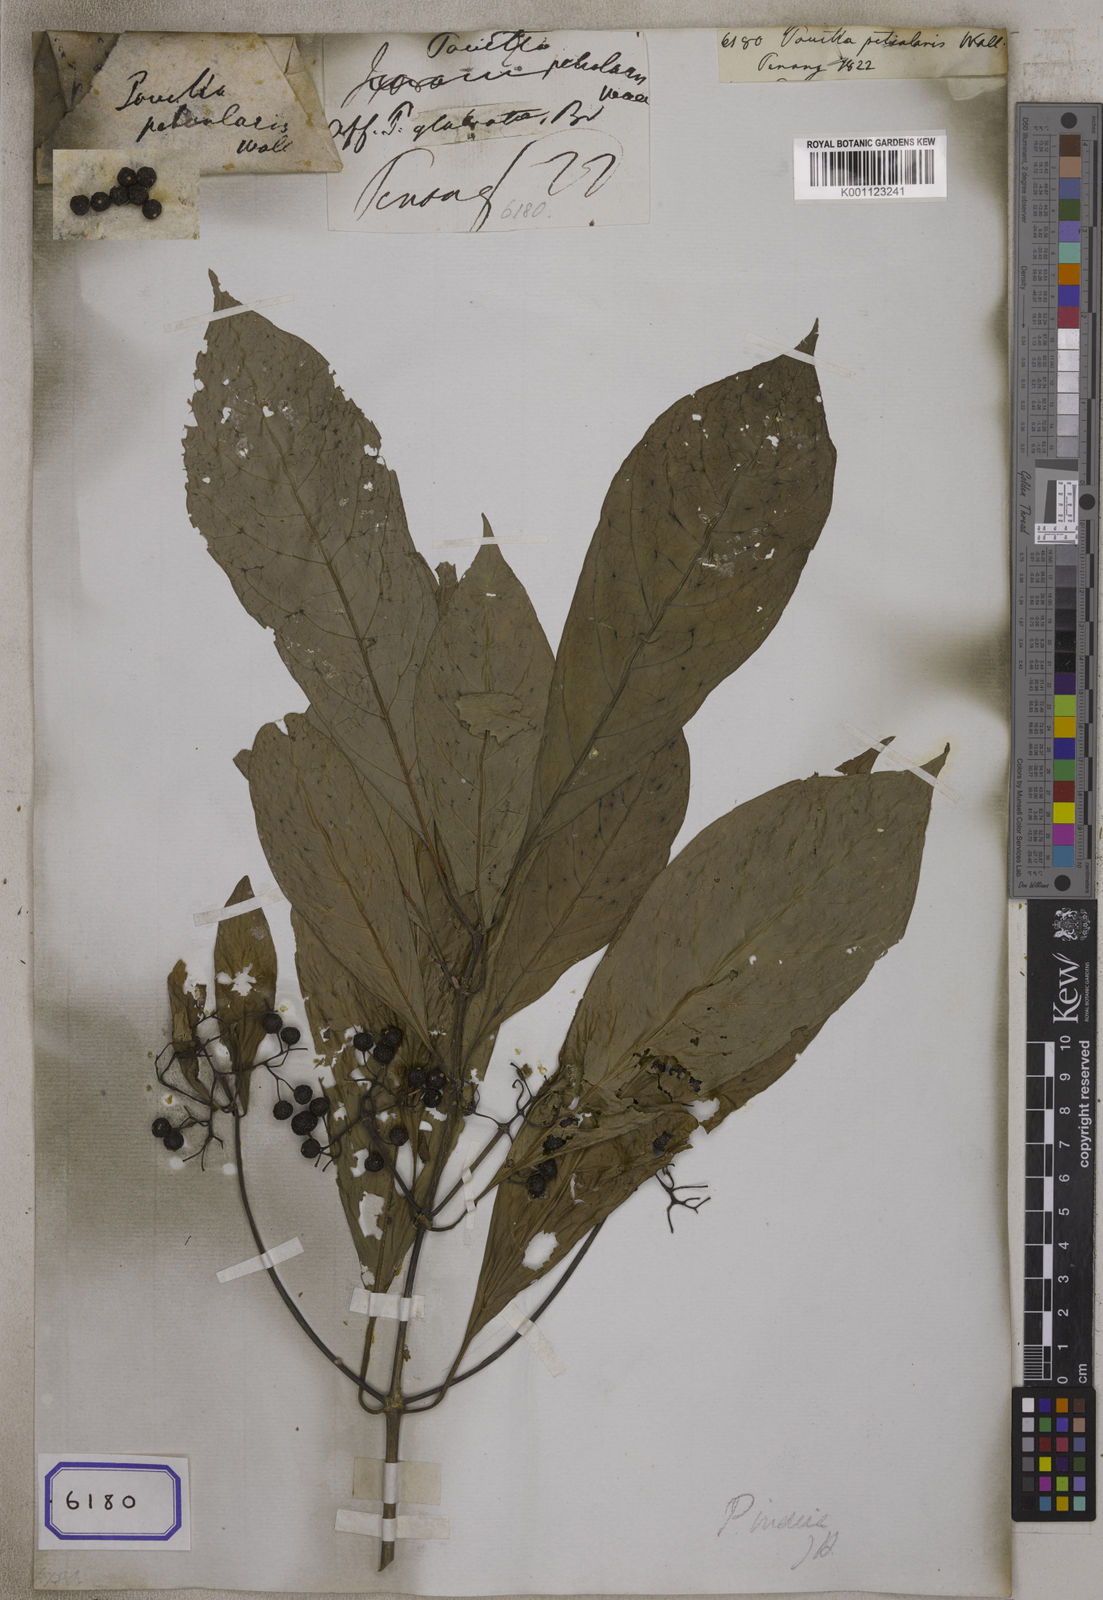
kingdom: Plantae
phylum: Tracheophyta
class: Magnoliopsida
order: Gentianales
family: Rubiaceae
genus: Pavetta
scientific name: Pavetta
